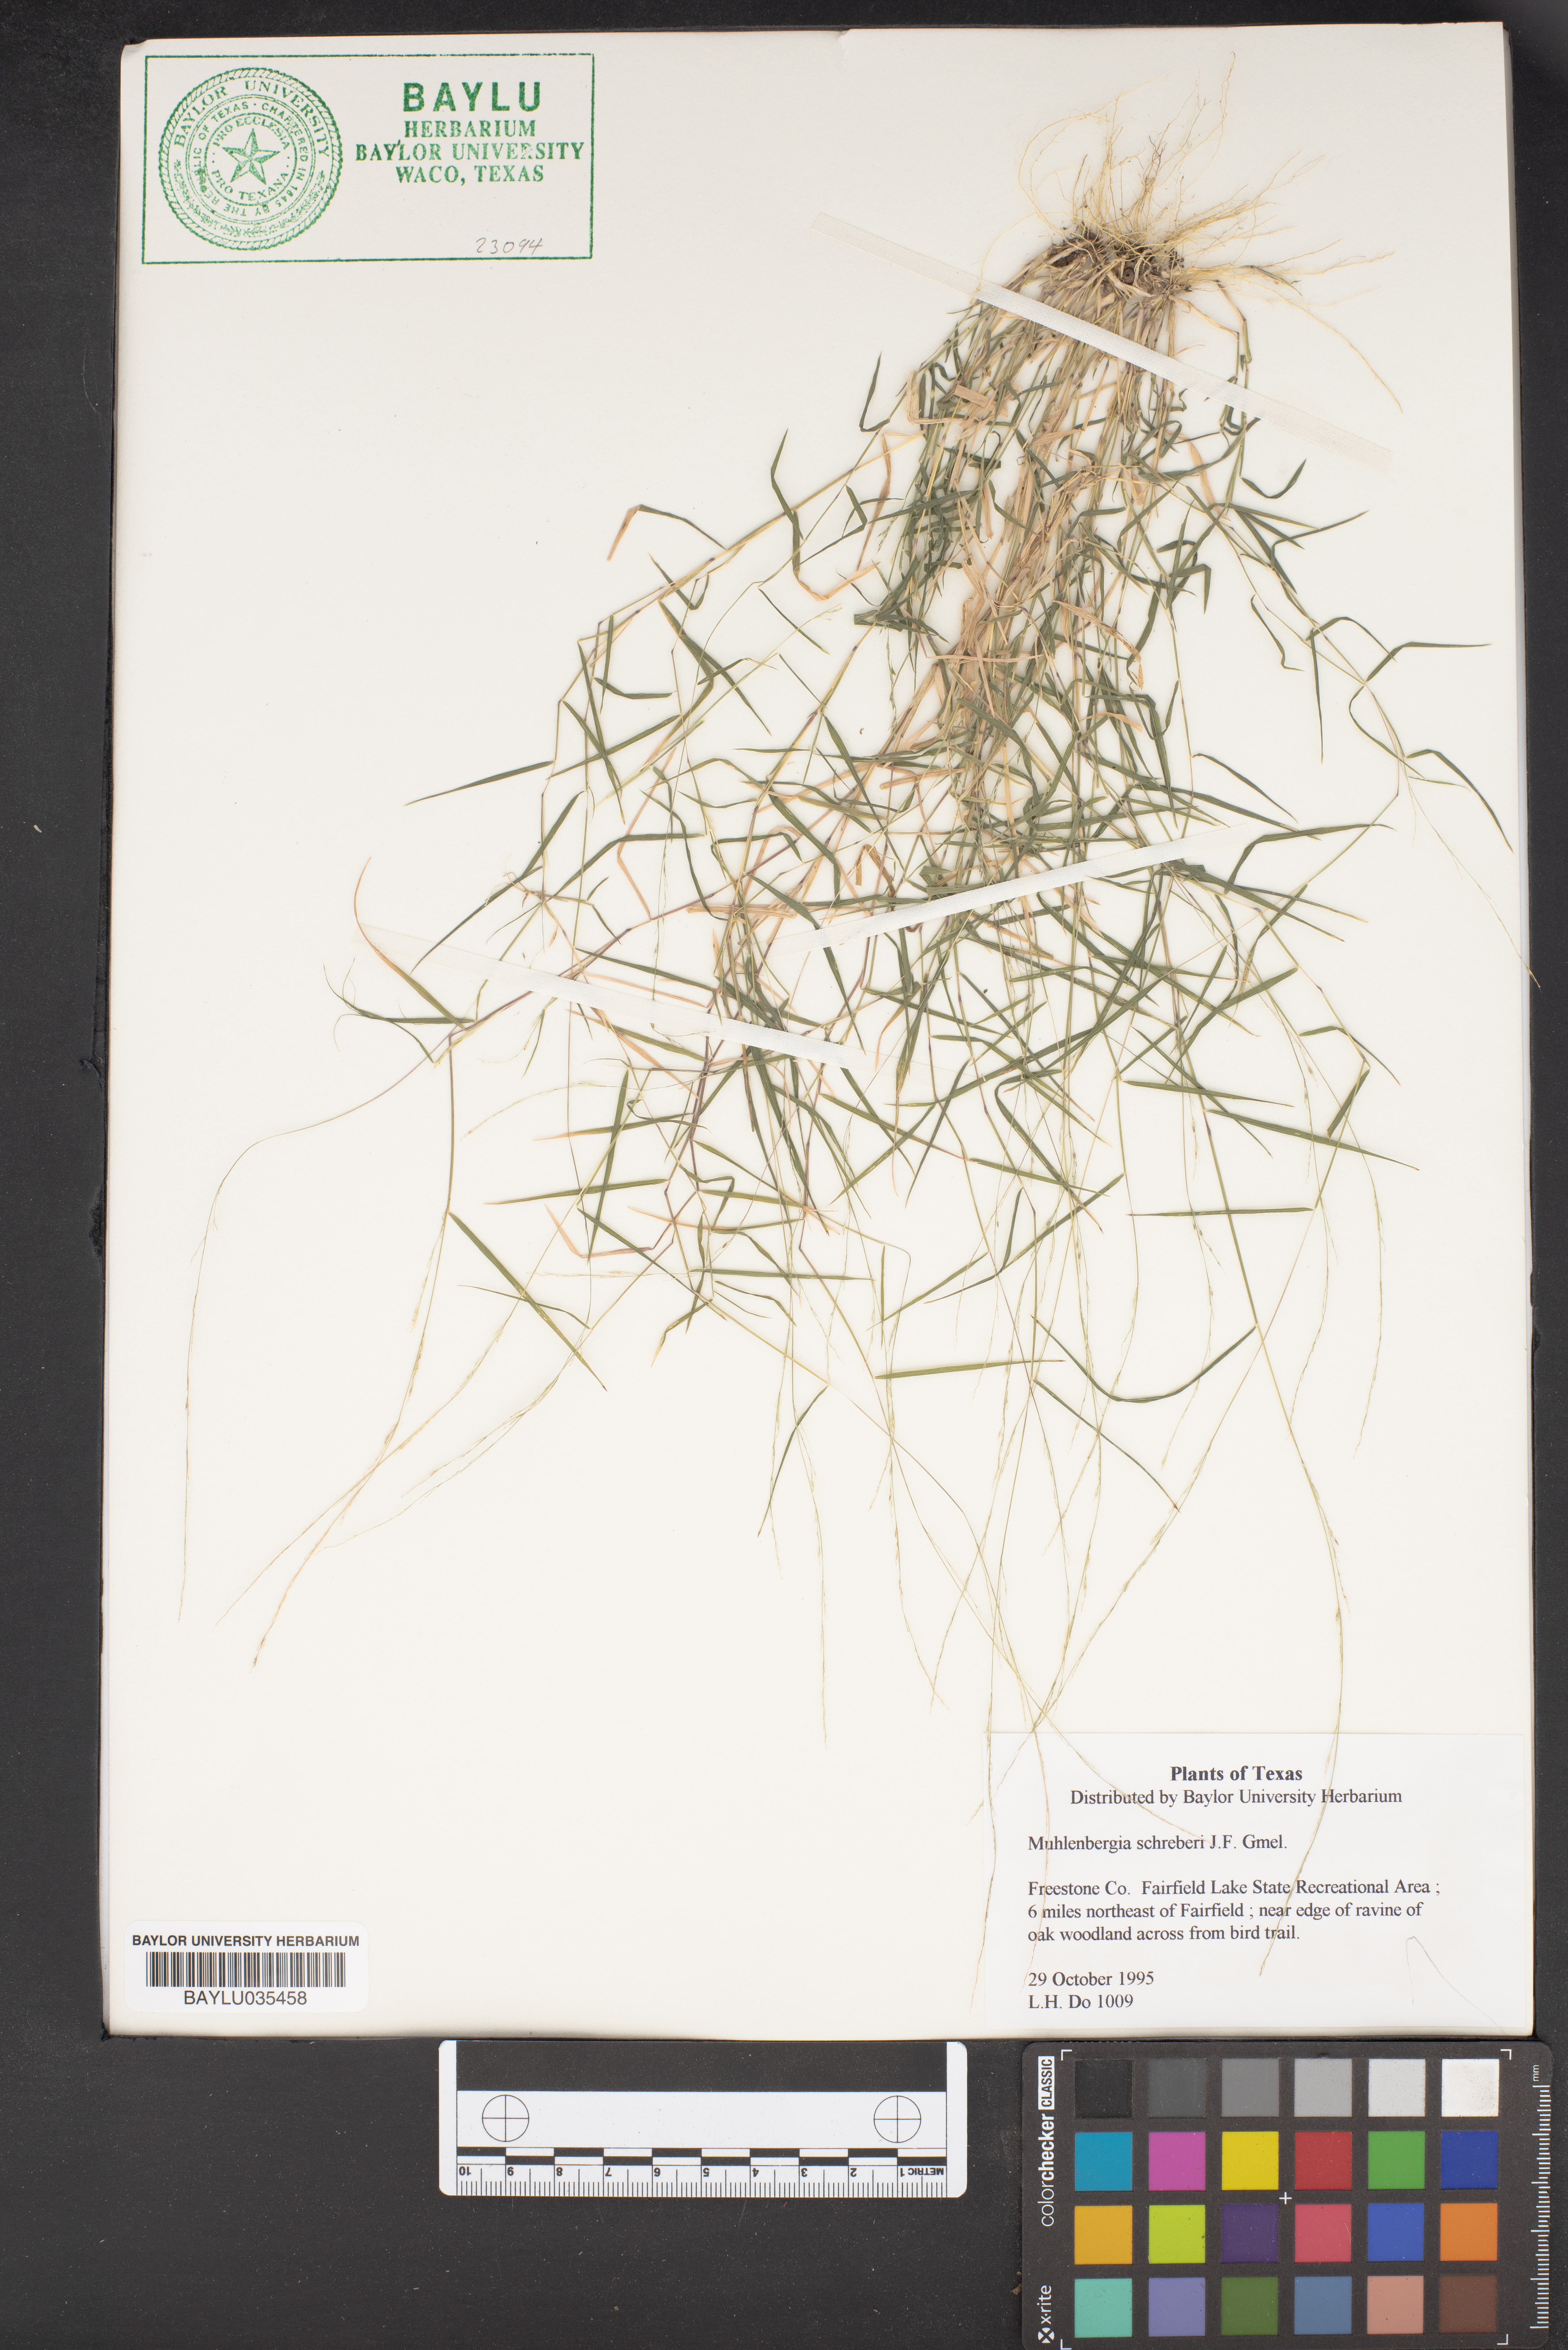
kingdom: Plantae
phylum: Tracheophyta
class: Liliopsida
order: Poales
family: Poaceae
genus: Muhlenbergia
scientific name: Muhlenbergia schreberi
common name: Nimblewill
